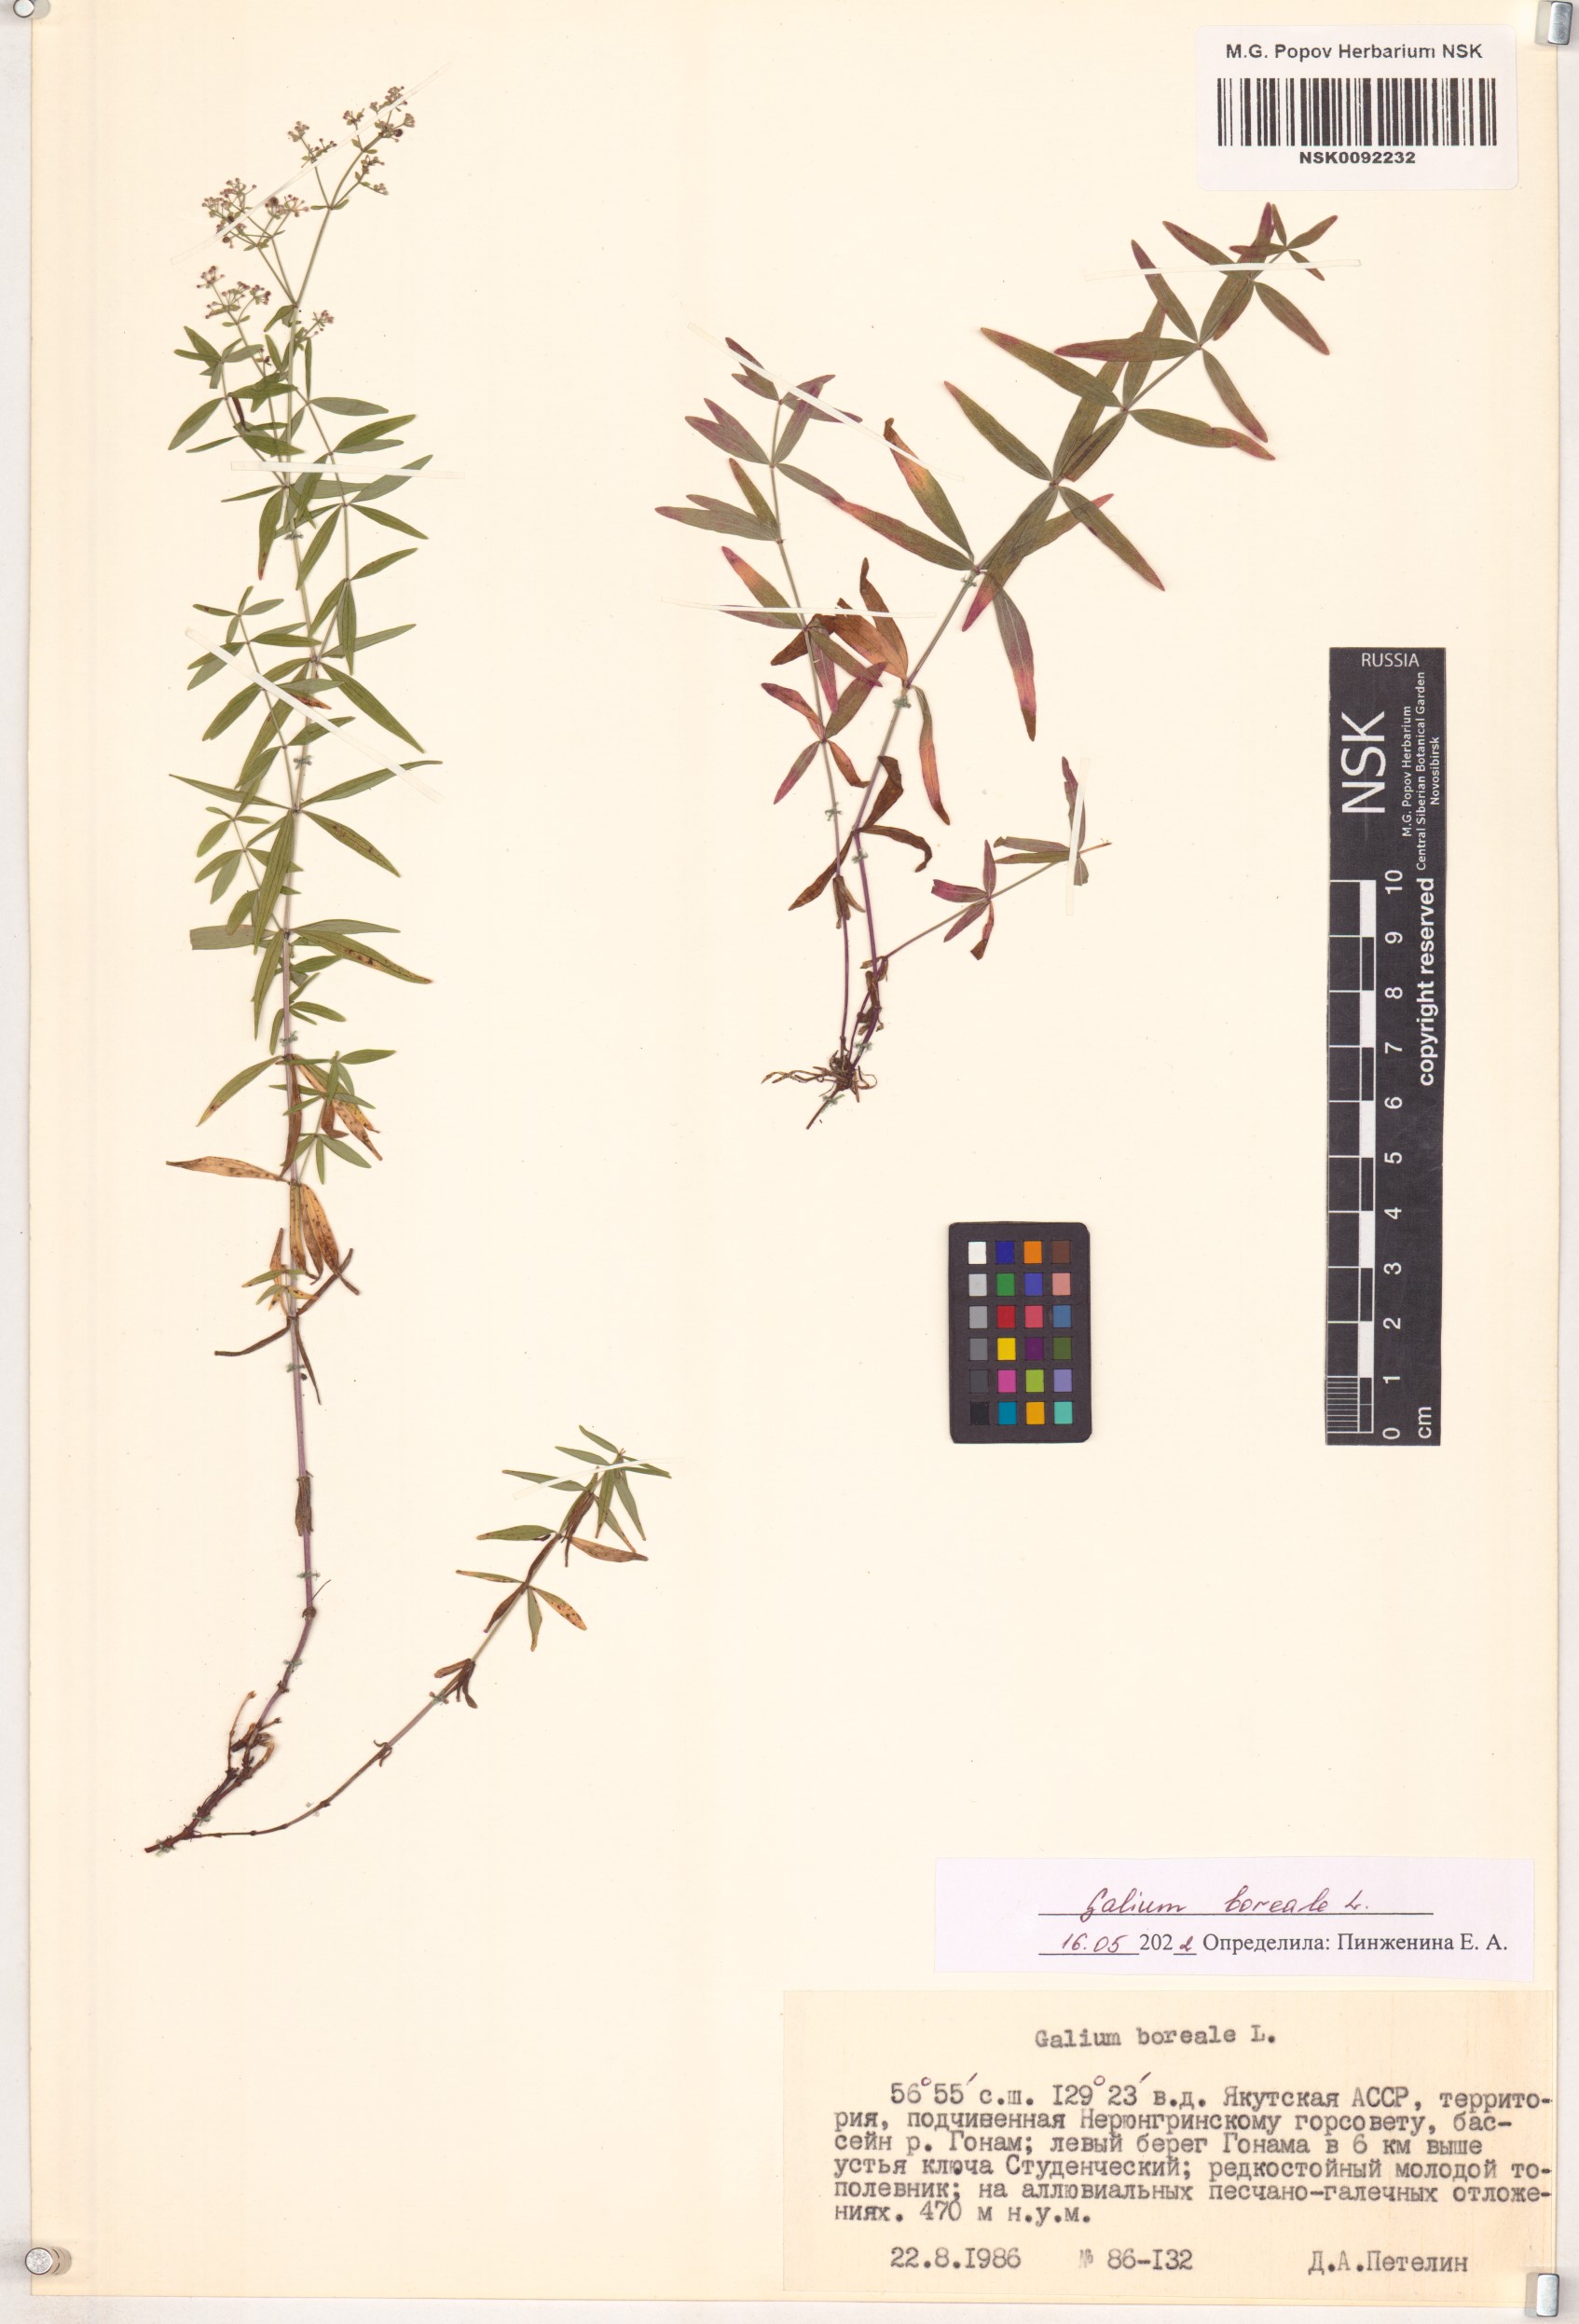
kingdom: Plantae
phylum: Tracheophyta
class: Magnoliopsida
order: Gentianales
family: Rubiaceae
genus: Galium
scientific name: Galium boreale
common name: Northern bedstraw
